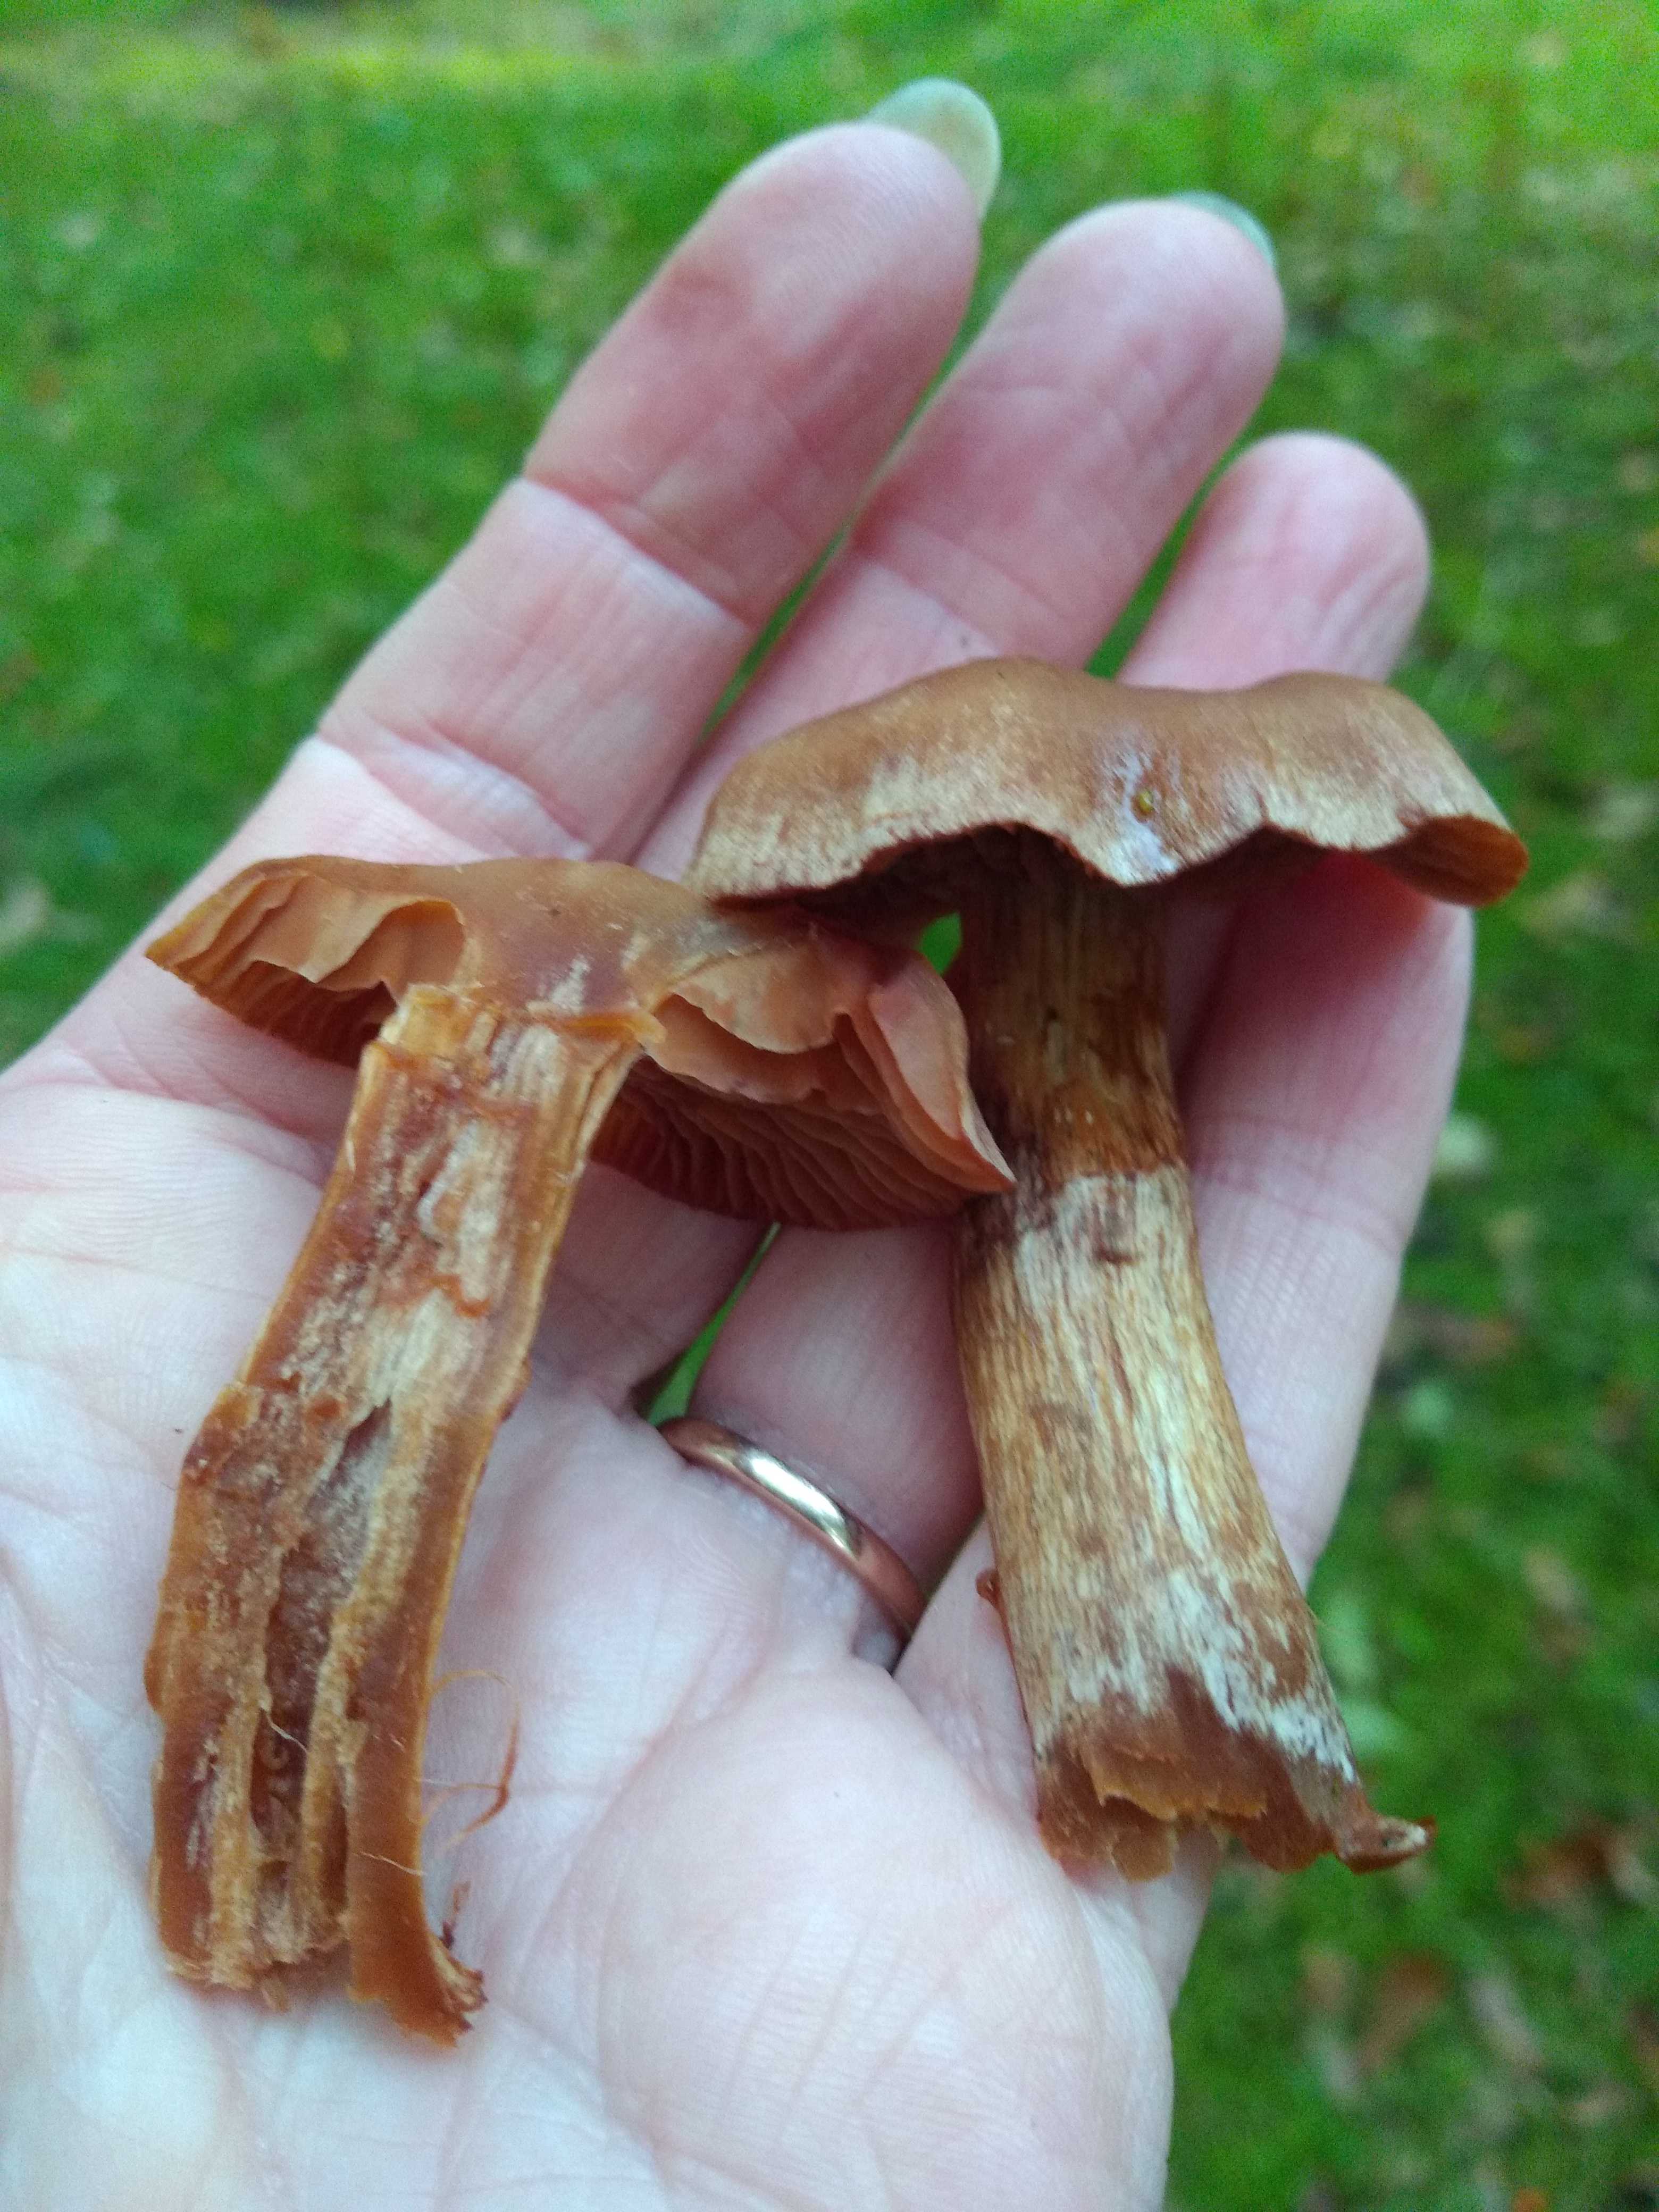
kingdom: Fungi
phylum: Basidiomycota
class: Agaricomycetes
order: Agaricales
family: Cortinariaceae
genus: Cortinarius
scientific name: Cortinarius
